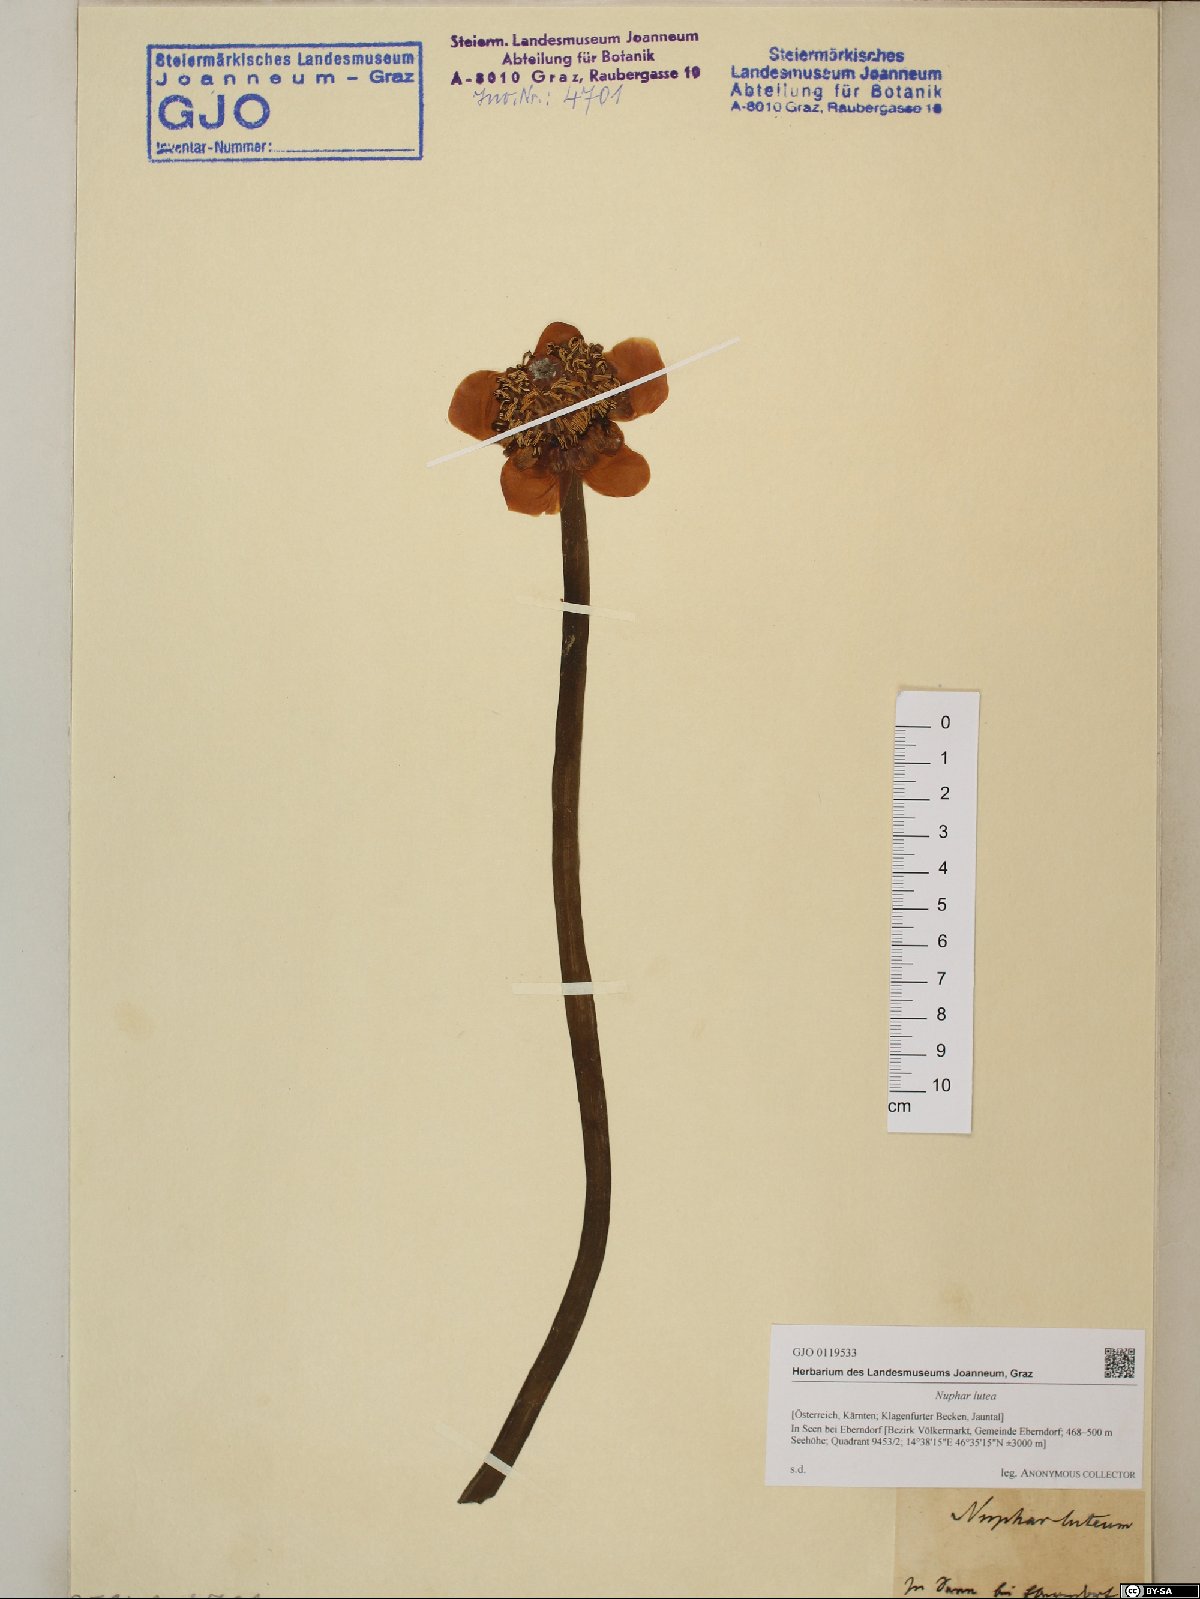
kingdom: Plantae
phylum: Tracheophyta
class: Magnoliopsida
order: Nymphaeales
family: Nymphaeaceae
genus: Nuphar
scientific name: Nuphar lutea
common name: Yellow water-lily
